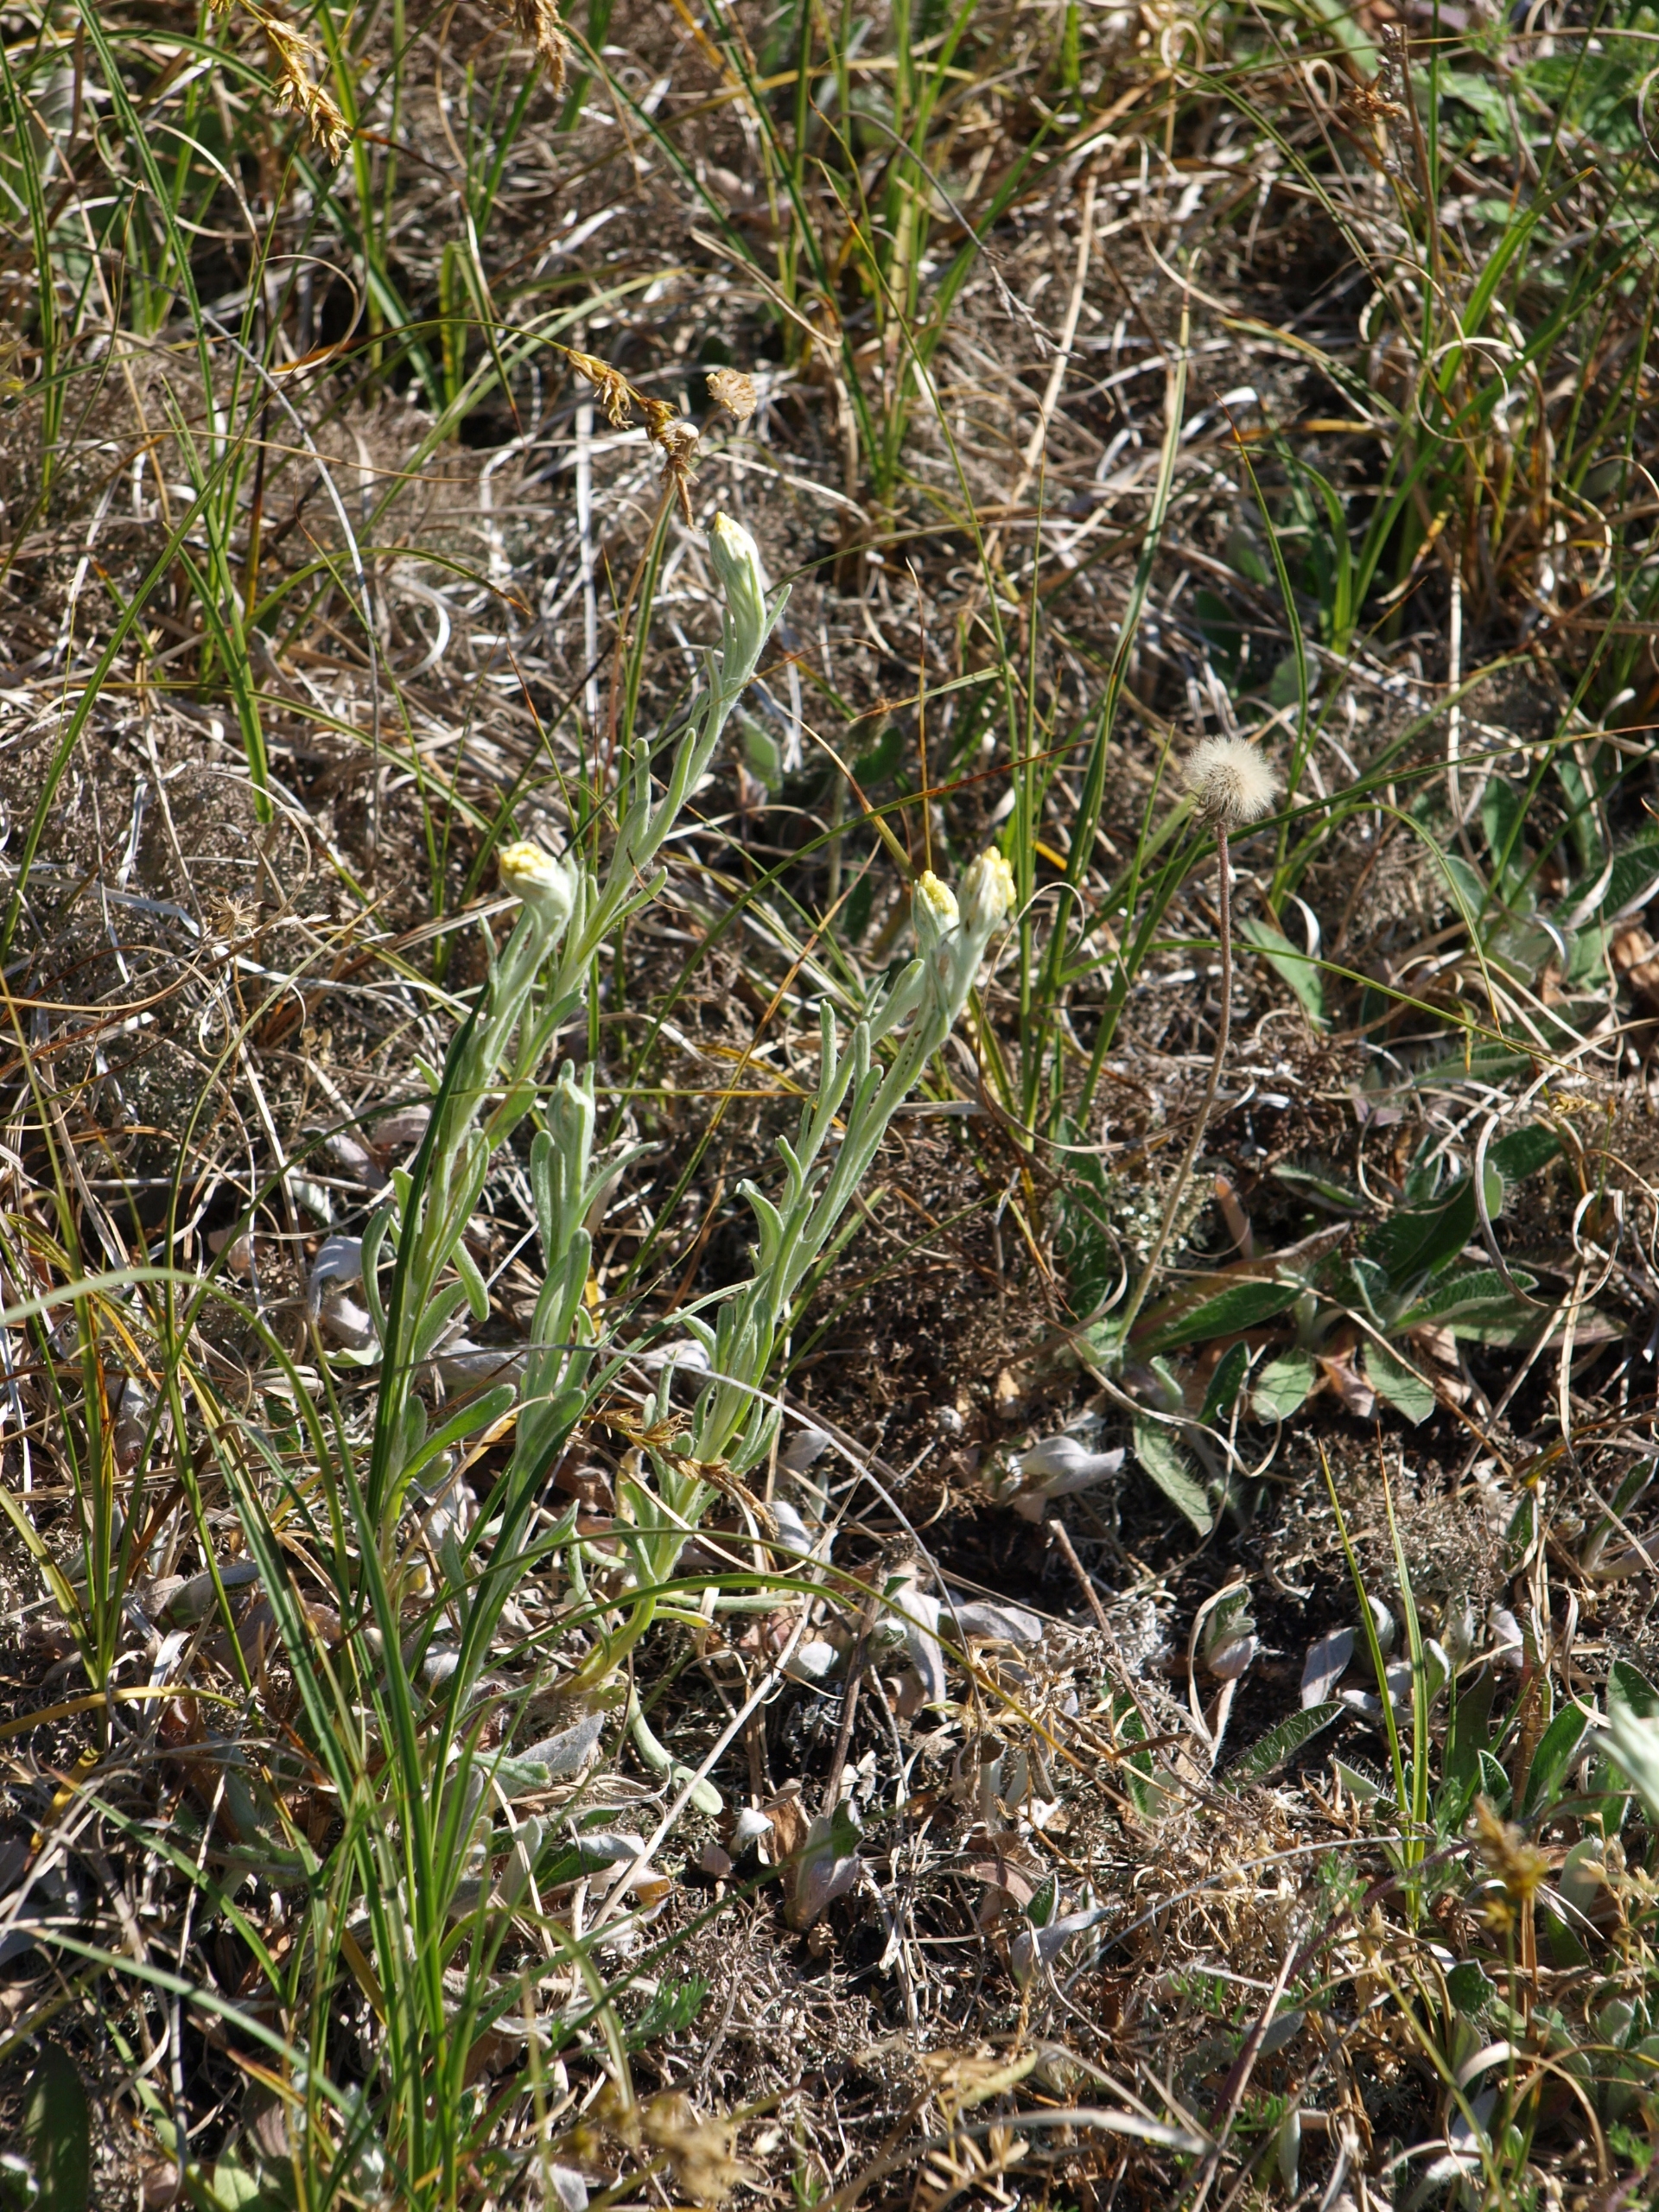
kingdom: Plantae
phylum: Tracheophyta
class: Magnoliopsida
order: Asterales
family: Asteraceae
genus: Helichrysum
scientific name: Helichrysum arenarium
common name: Gul evighedsblomst
